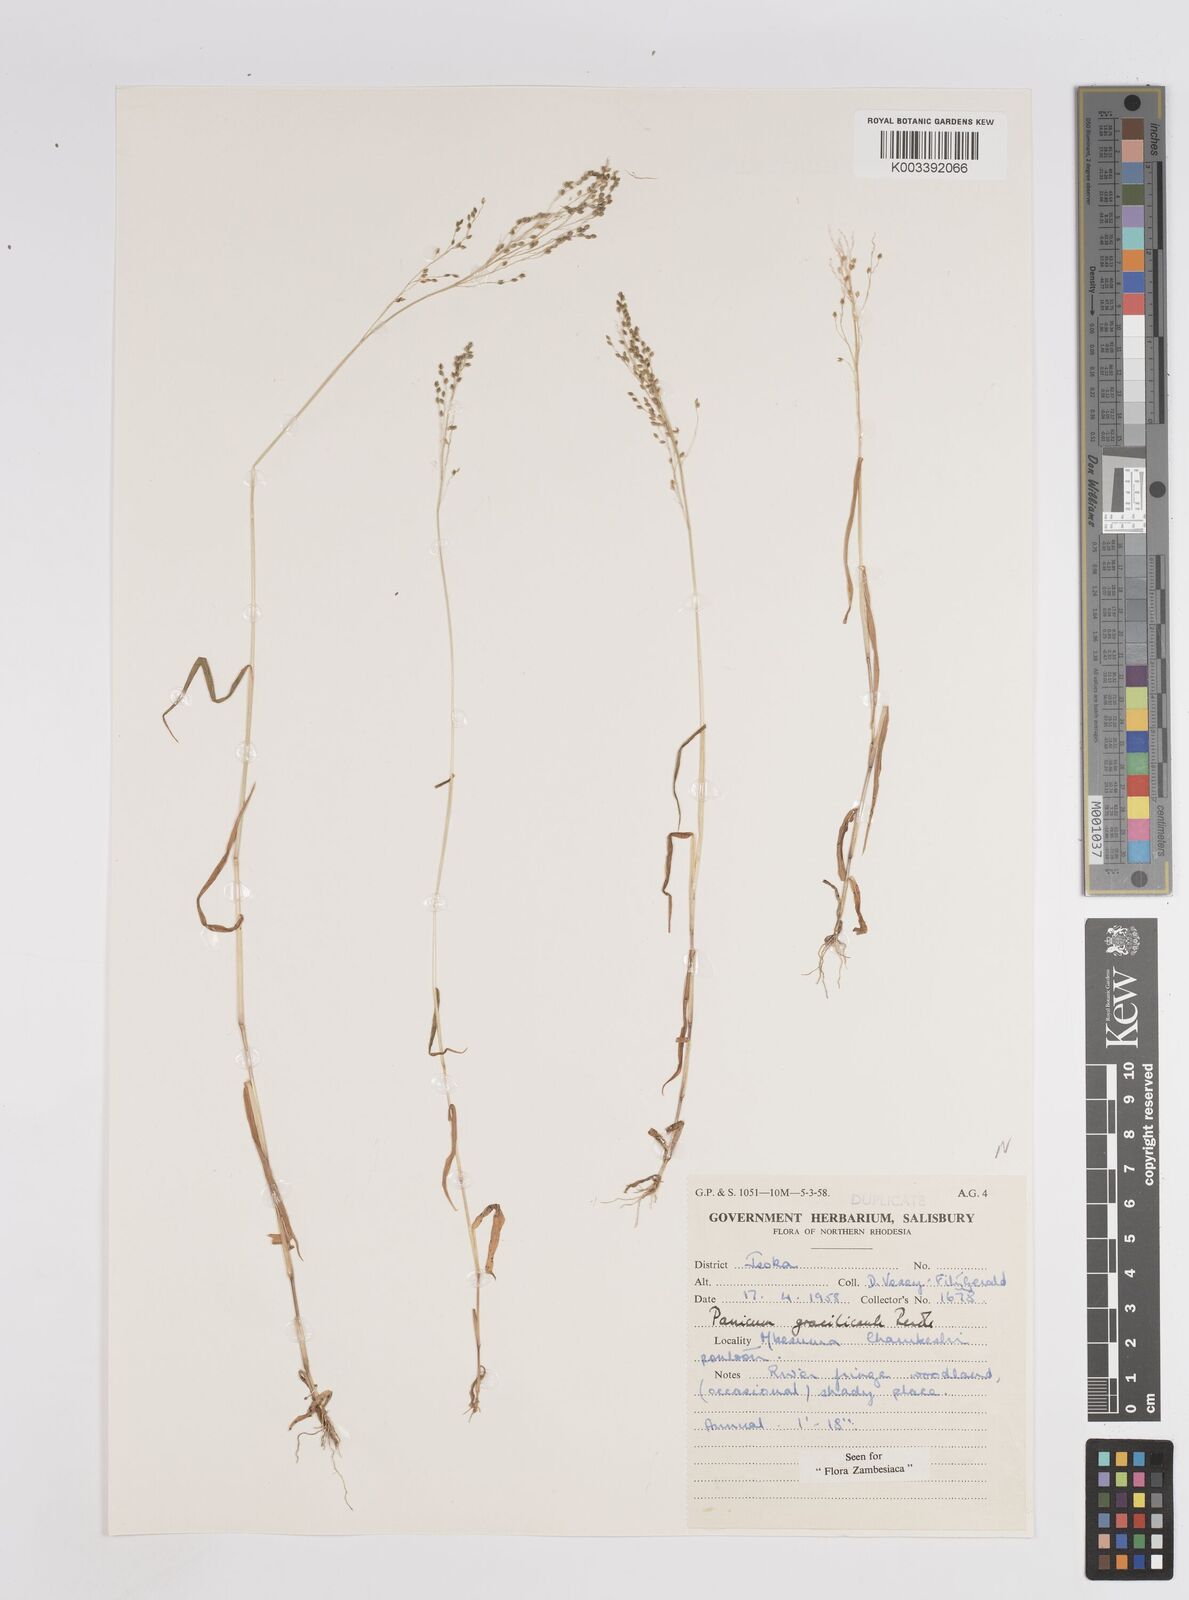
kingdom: Plantae
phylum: Tracheophyta
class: Liliopsida
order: Poales
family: Poaceae
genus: Trichanthecium
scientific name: Trichanthecium gracilicaule
